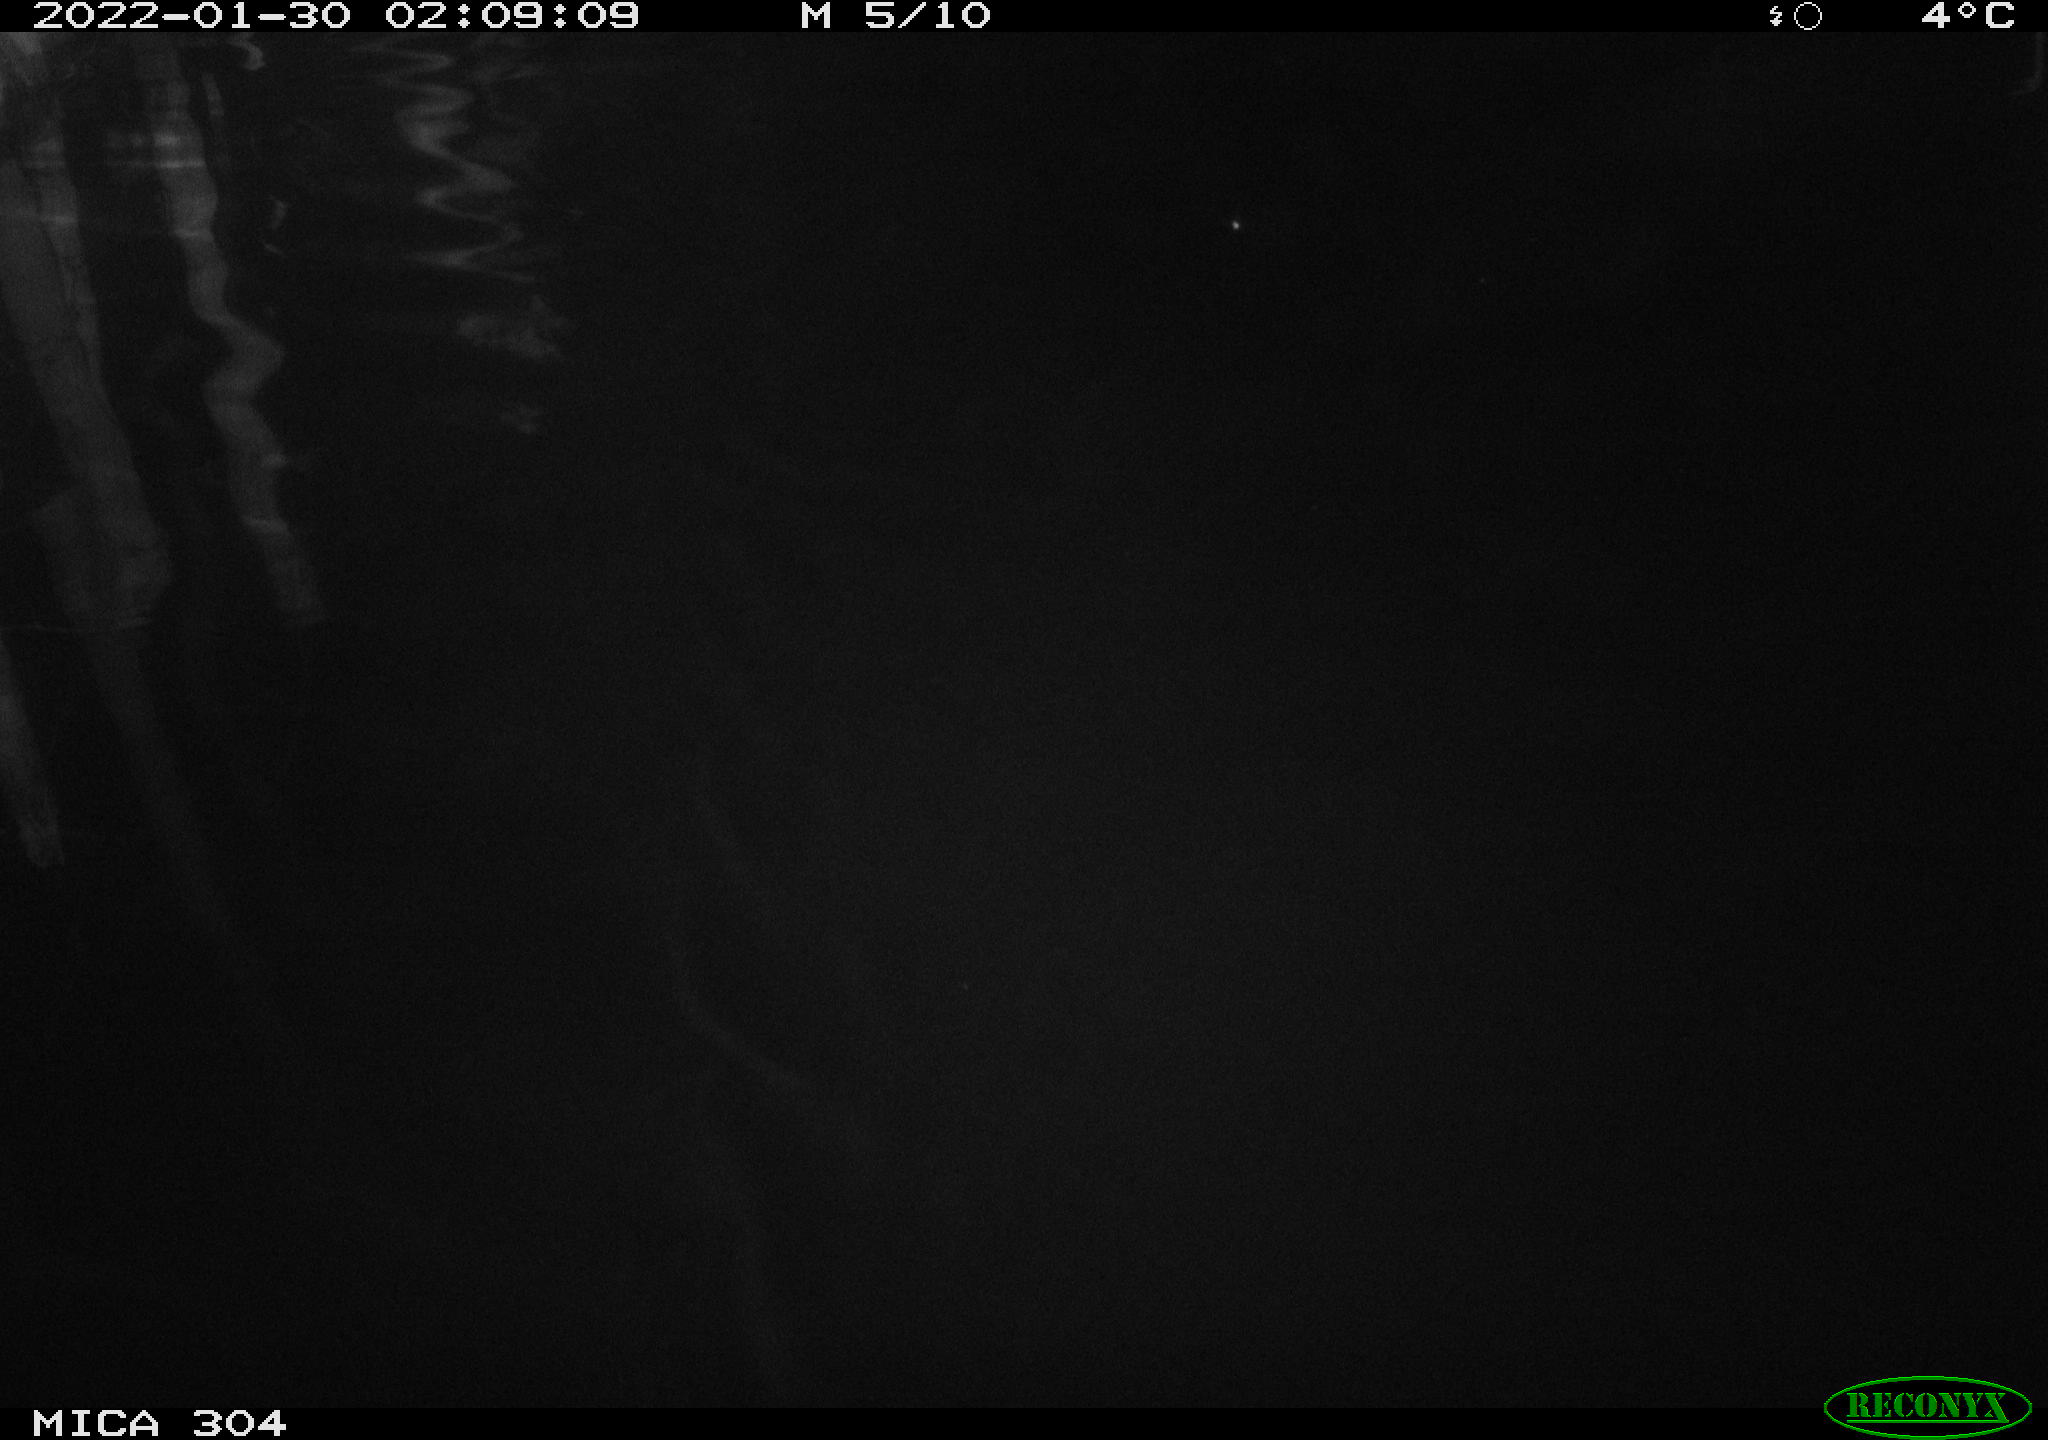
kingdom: Animalia
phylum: Chordata
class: Aves
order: Anseriformes
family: Anatidae
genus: Anas
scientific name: Anas
